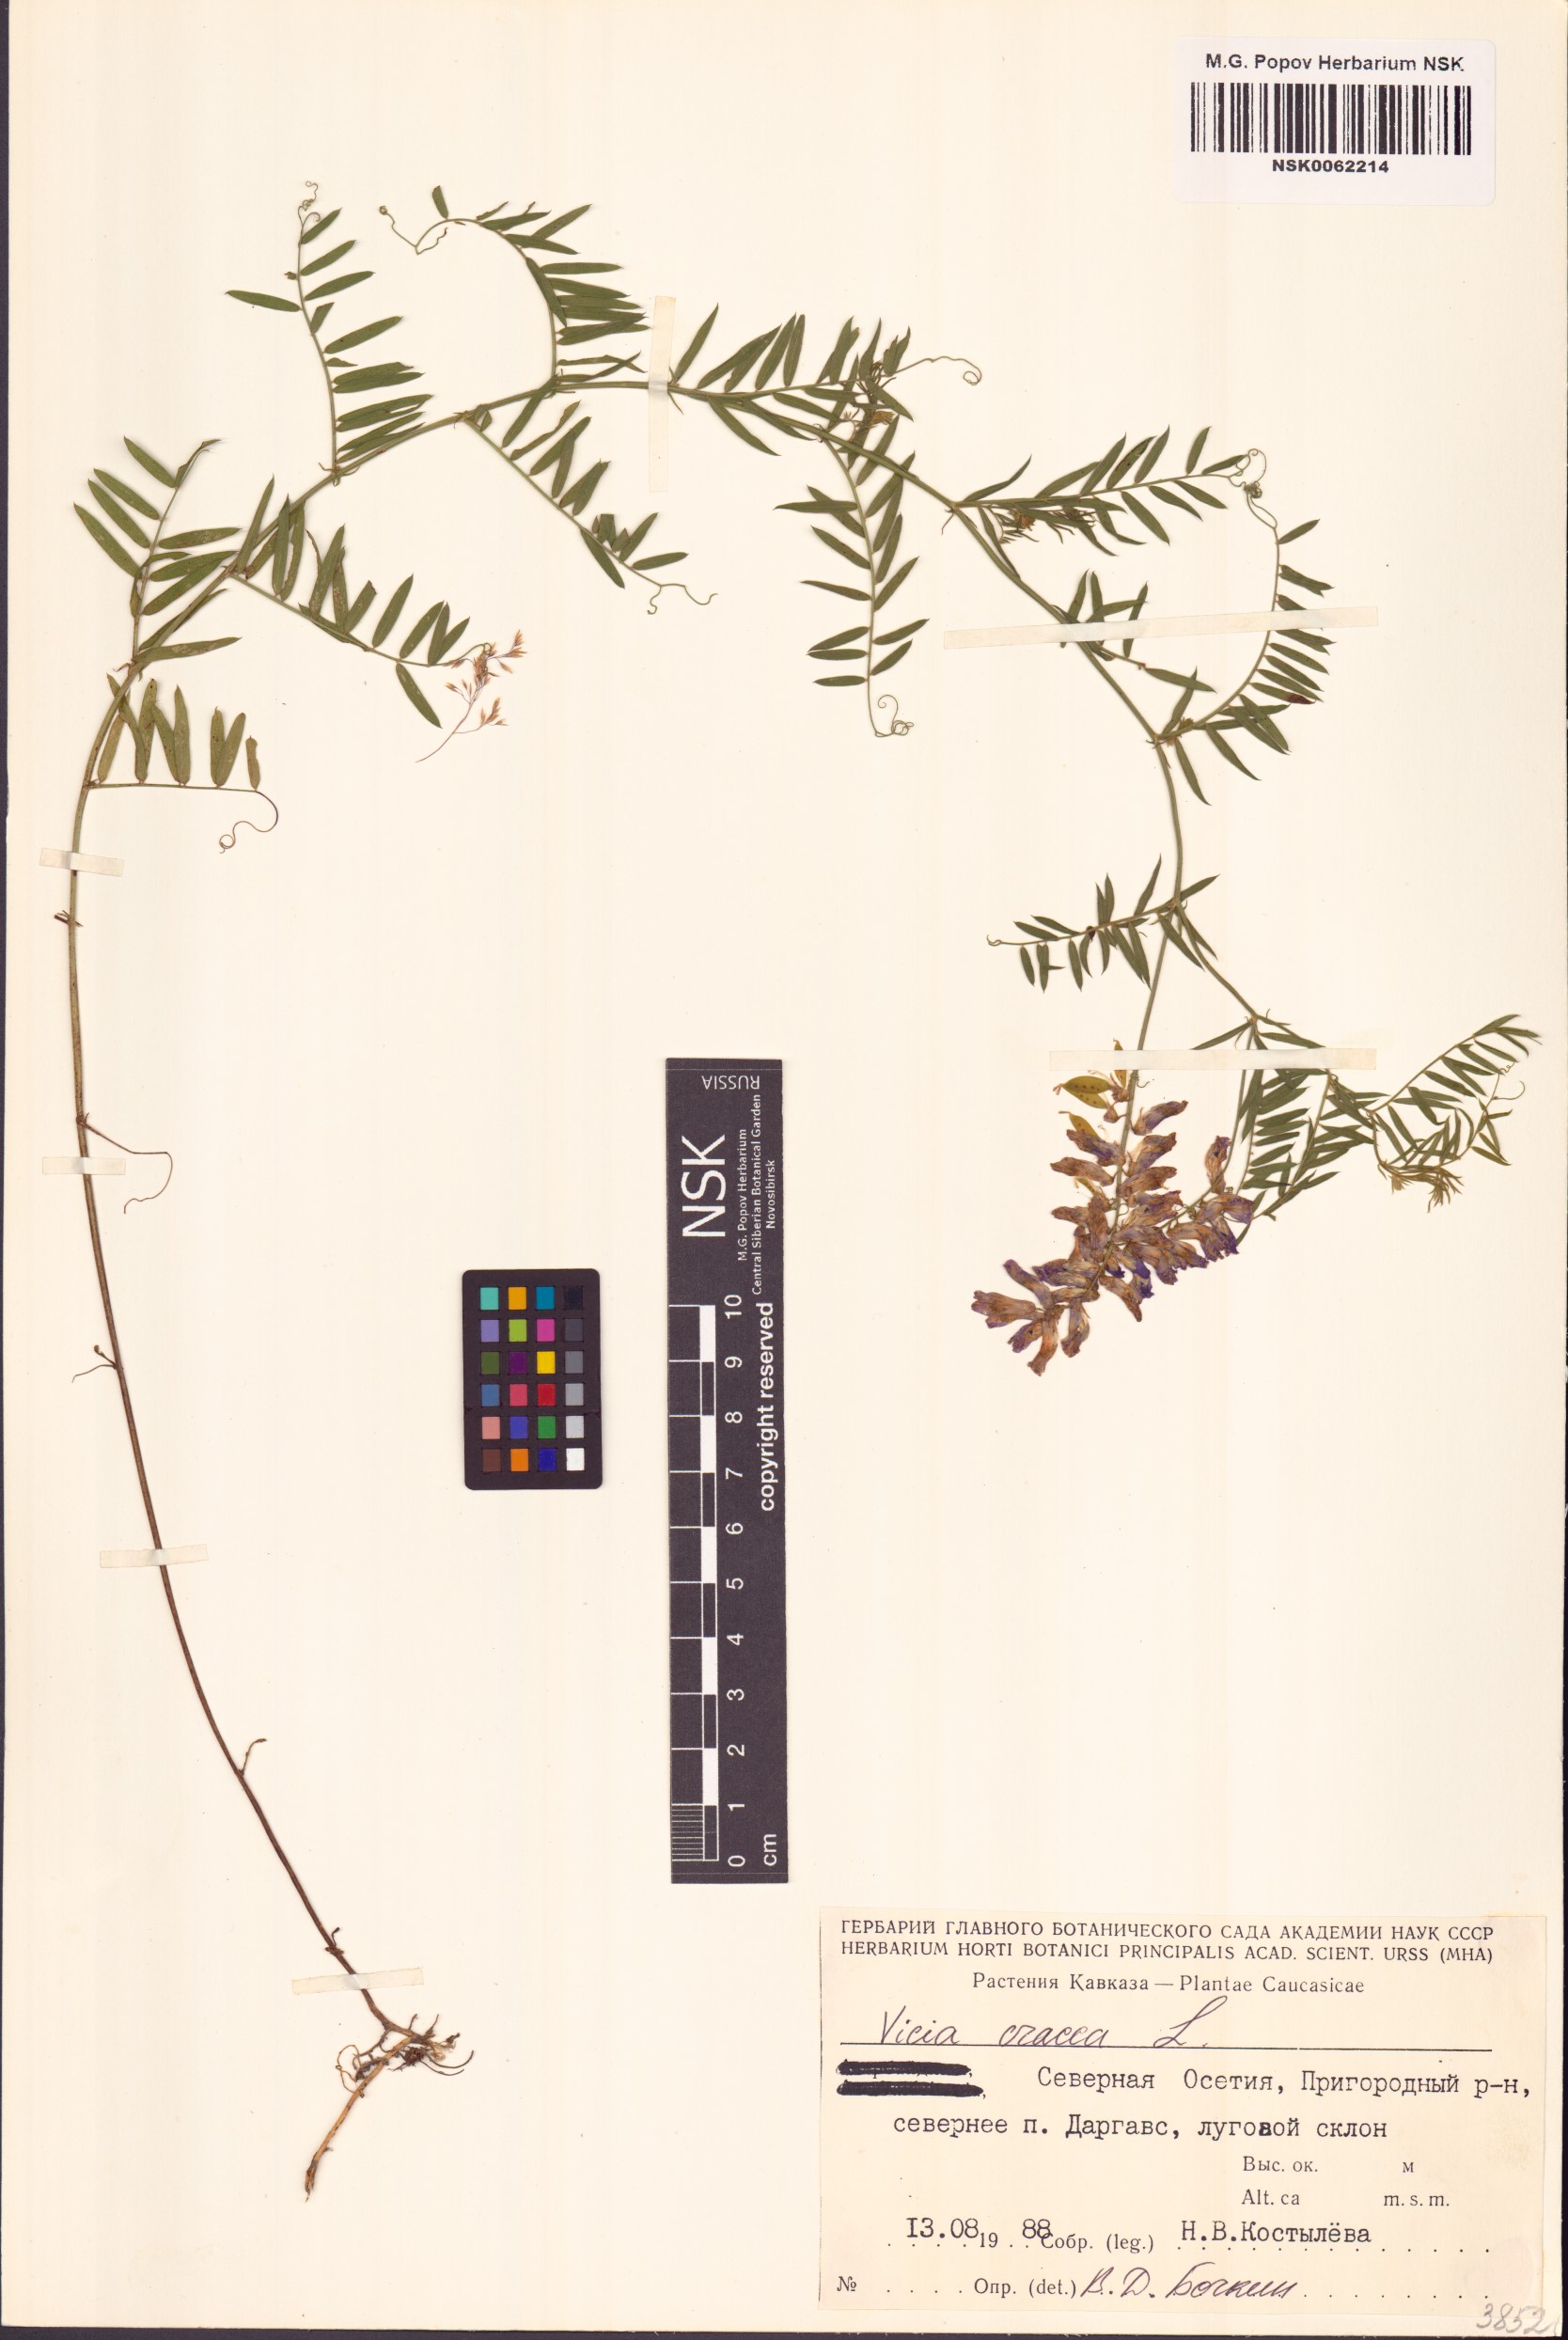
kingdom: Plantae
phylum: Tracheophyta
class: Magnoliopsida
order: Fabales
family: Fabaceae
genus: Vicia
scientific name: Vicia cracca
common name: Bird vetch
